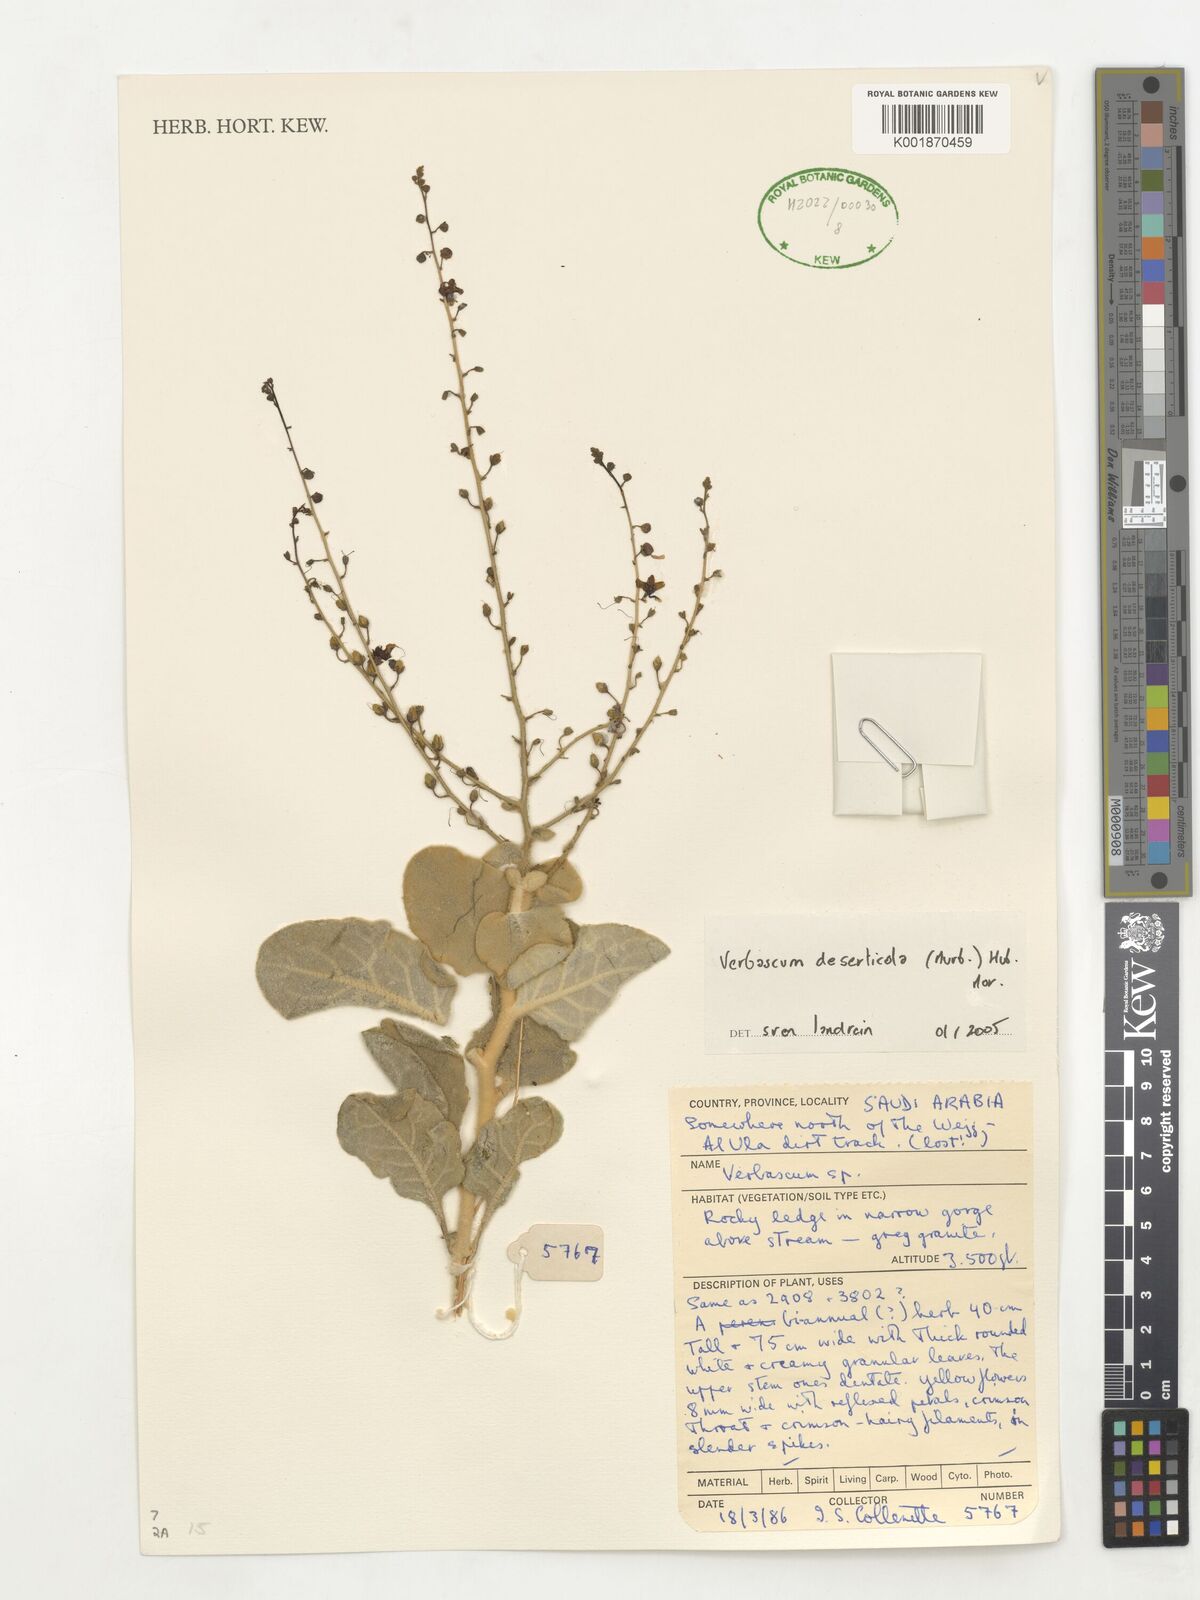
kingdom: Plantae
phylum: Tracheophyta
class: Magnoliopsida
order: Lamiales
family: Scrophulariaceae
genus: Verbascum
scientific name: Verbascum schimperianum
